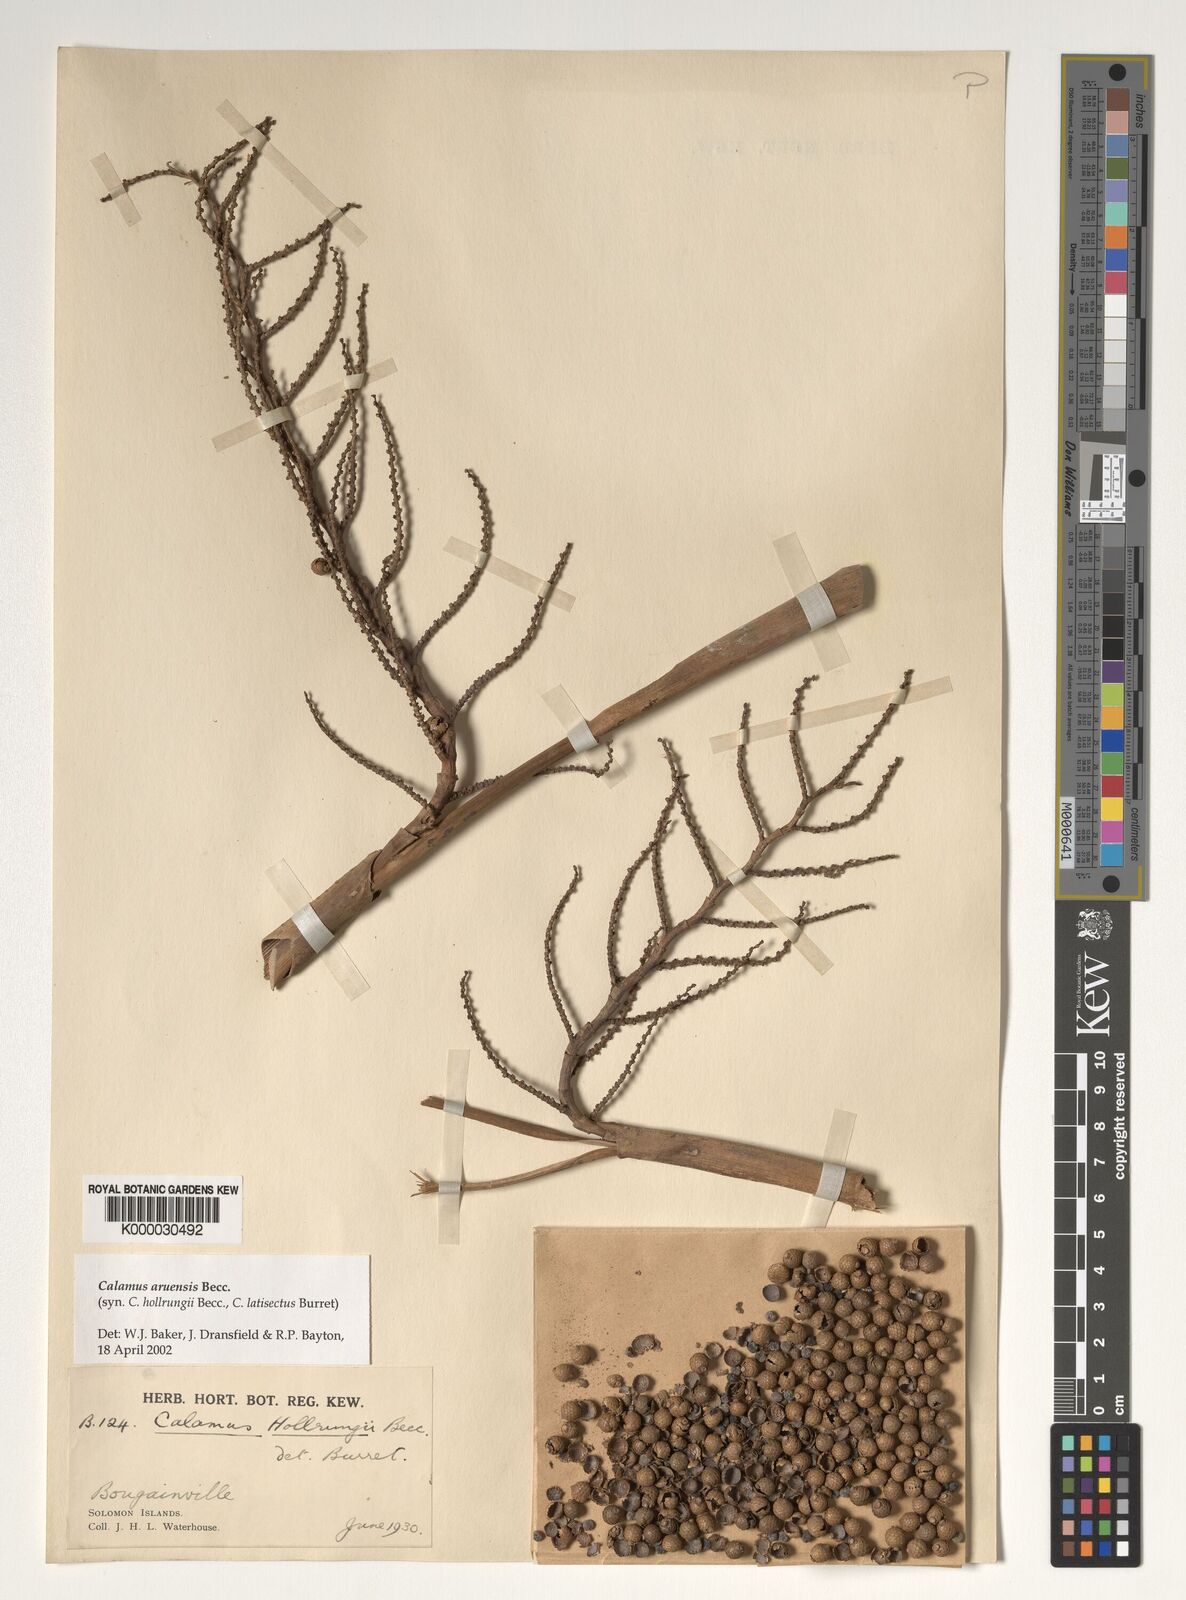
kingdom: Plantae
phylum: Tracheophyta
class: Liliopsida
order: Arecales
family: Arecaceae
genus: Calamus
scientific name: Calamus aruensis
